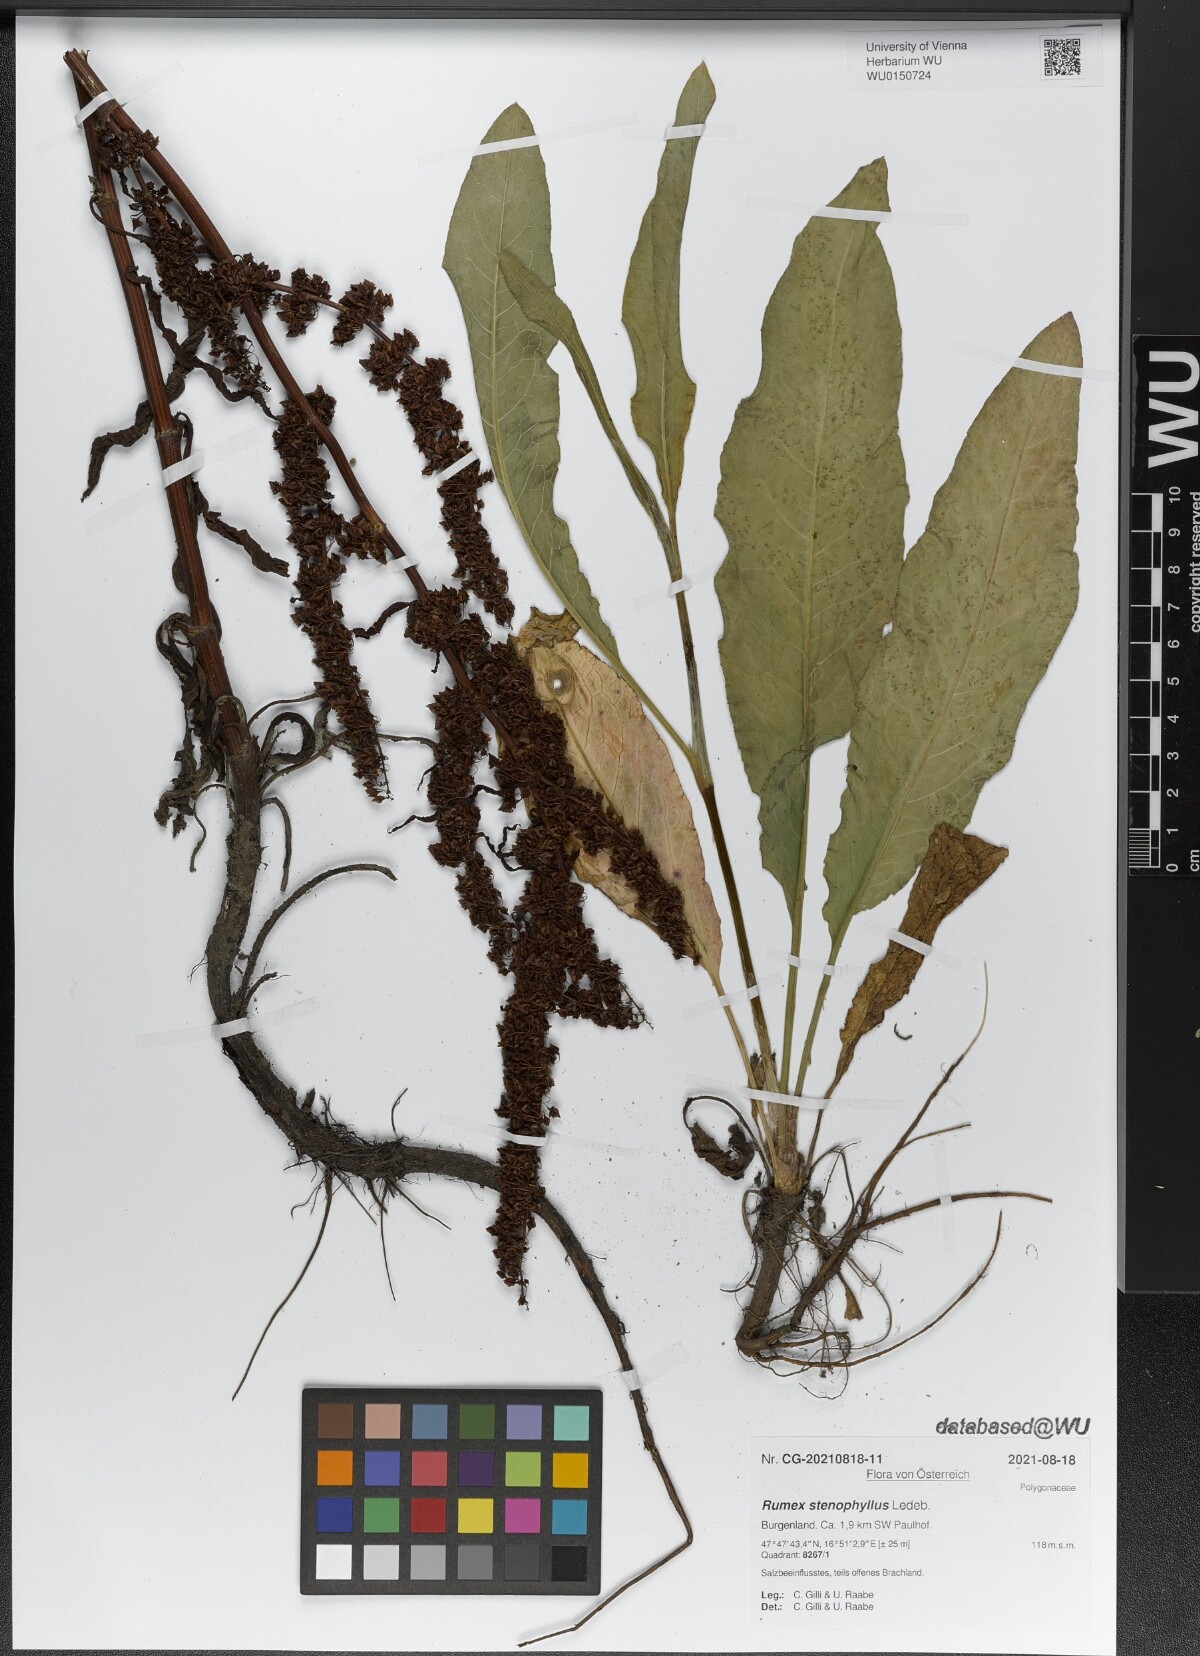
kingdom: Plantae
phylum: Tracheophyta
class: Magnoliopsida
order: Caryophyllales
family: Polygonaceae
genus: Rumex
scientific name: Rumex stenophyllus
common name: Narrowleaf dock
